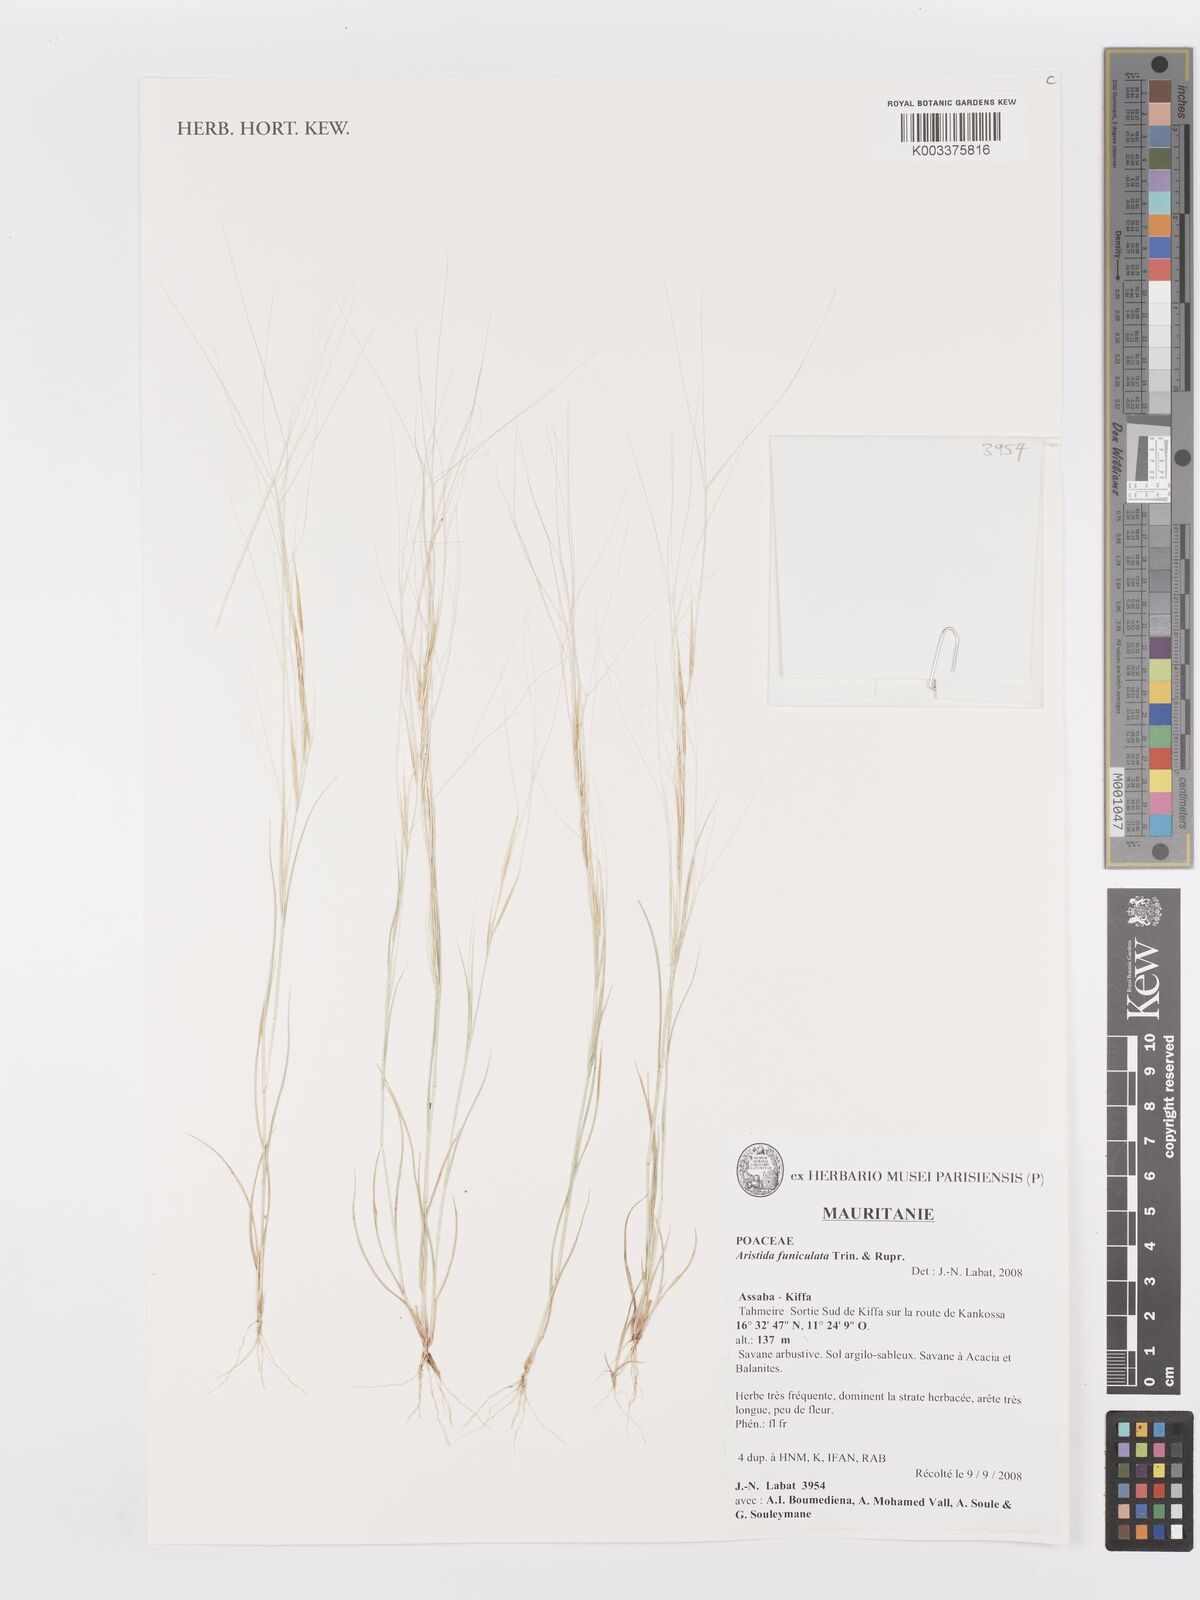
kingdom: Plantae
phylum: Tracheophyta
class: Liliopsida
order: Poales
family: Poaceae
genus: Aristida
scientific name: Aristida funiculata
